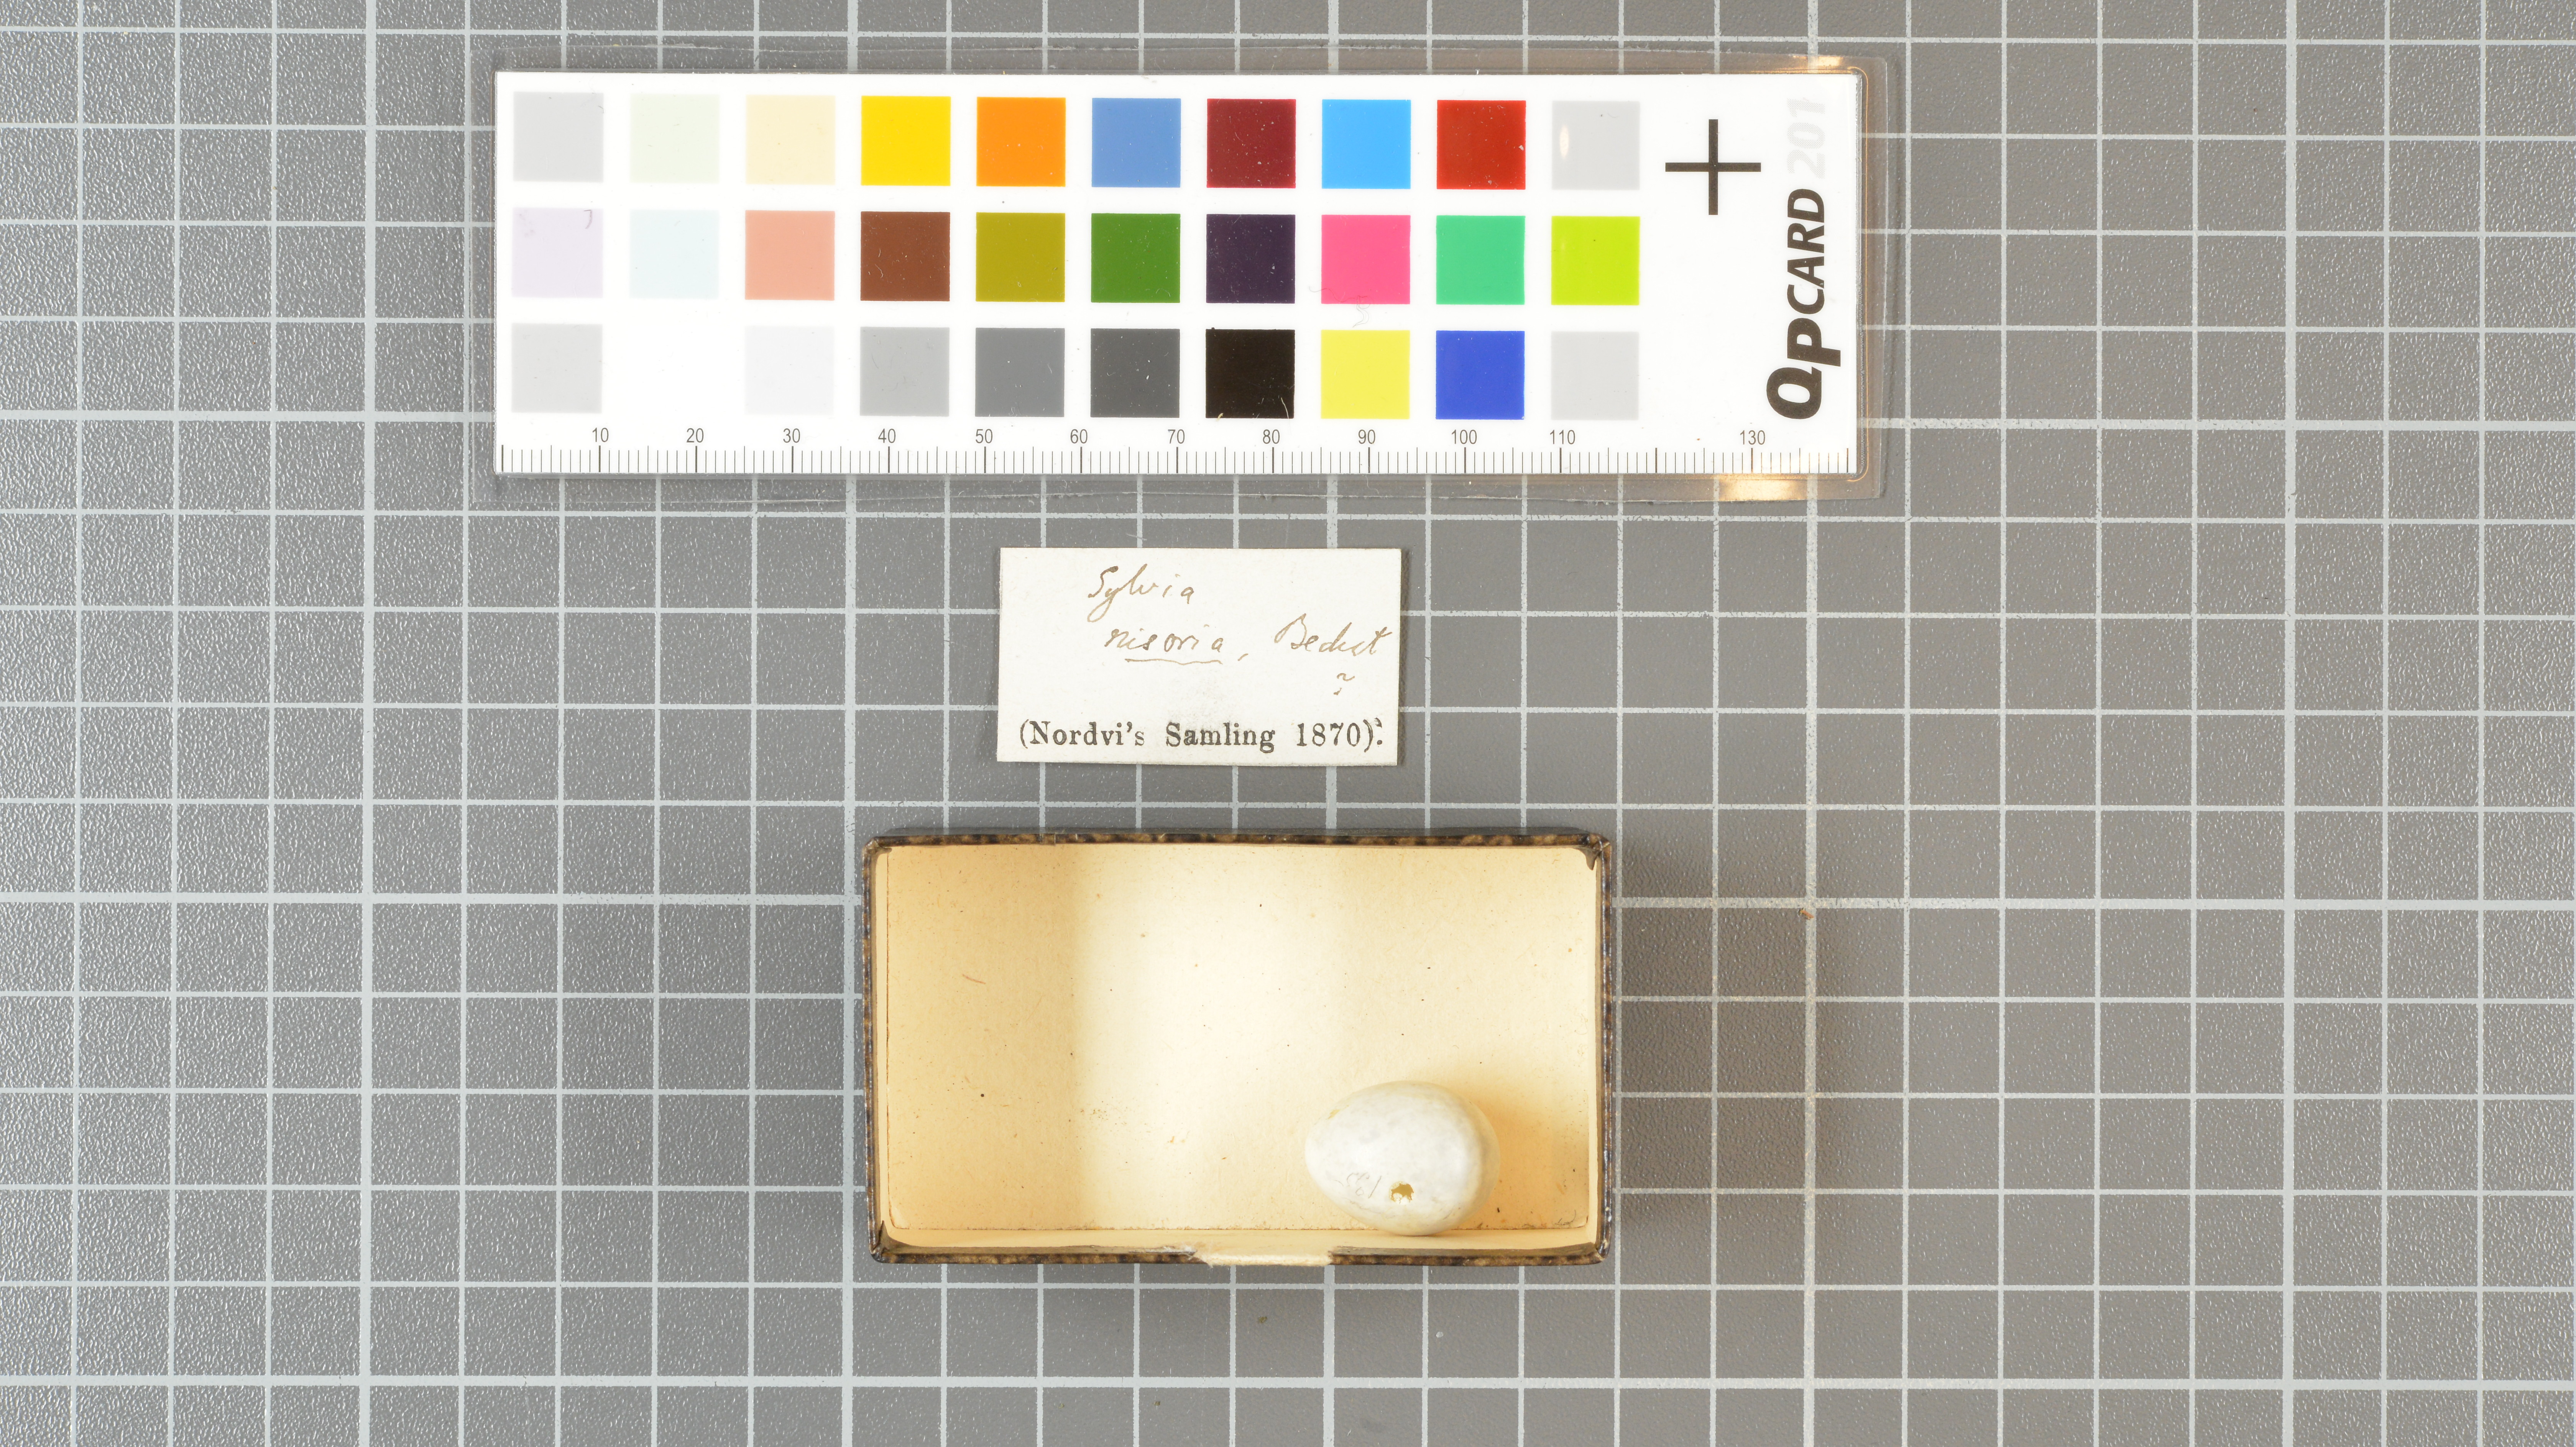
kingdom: Animalia
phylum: Chordata
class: Aves
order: Passeriformes
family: Sylviidae
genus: Sylvia
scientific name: Sylvia nisoria
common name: Barred warbler
